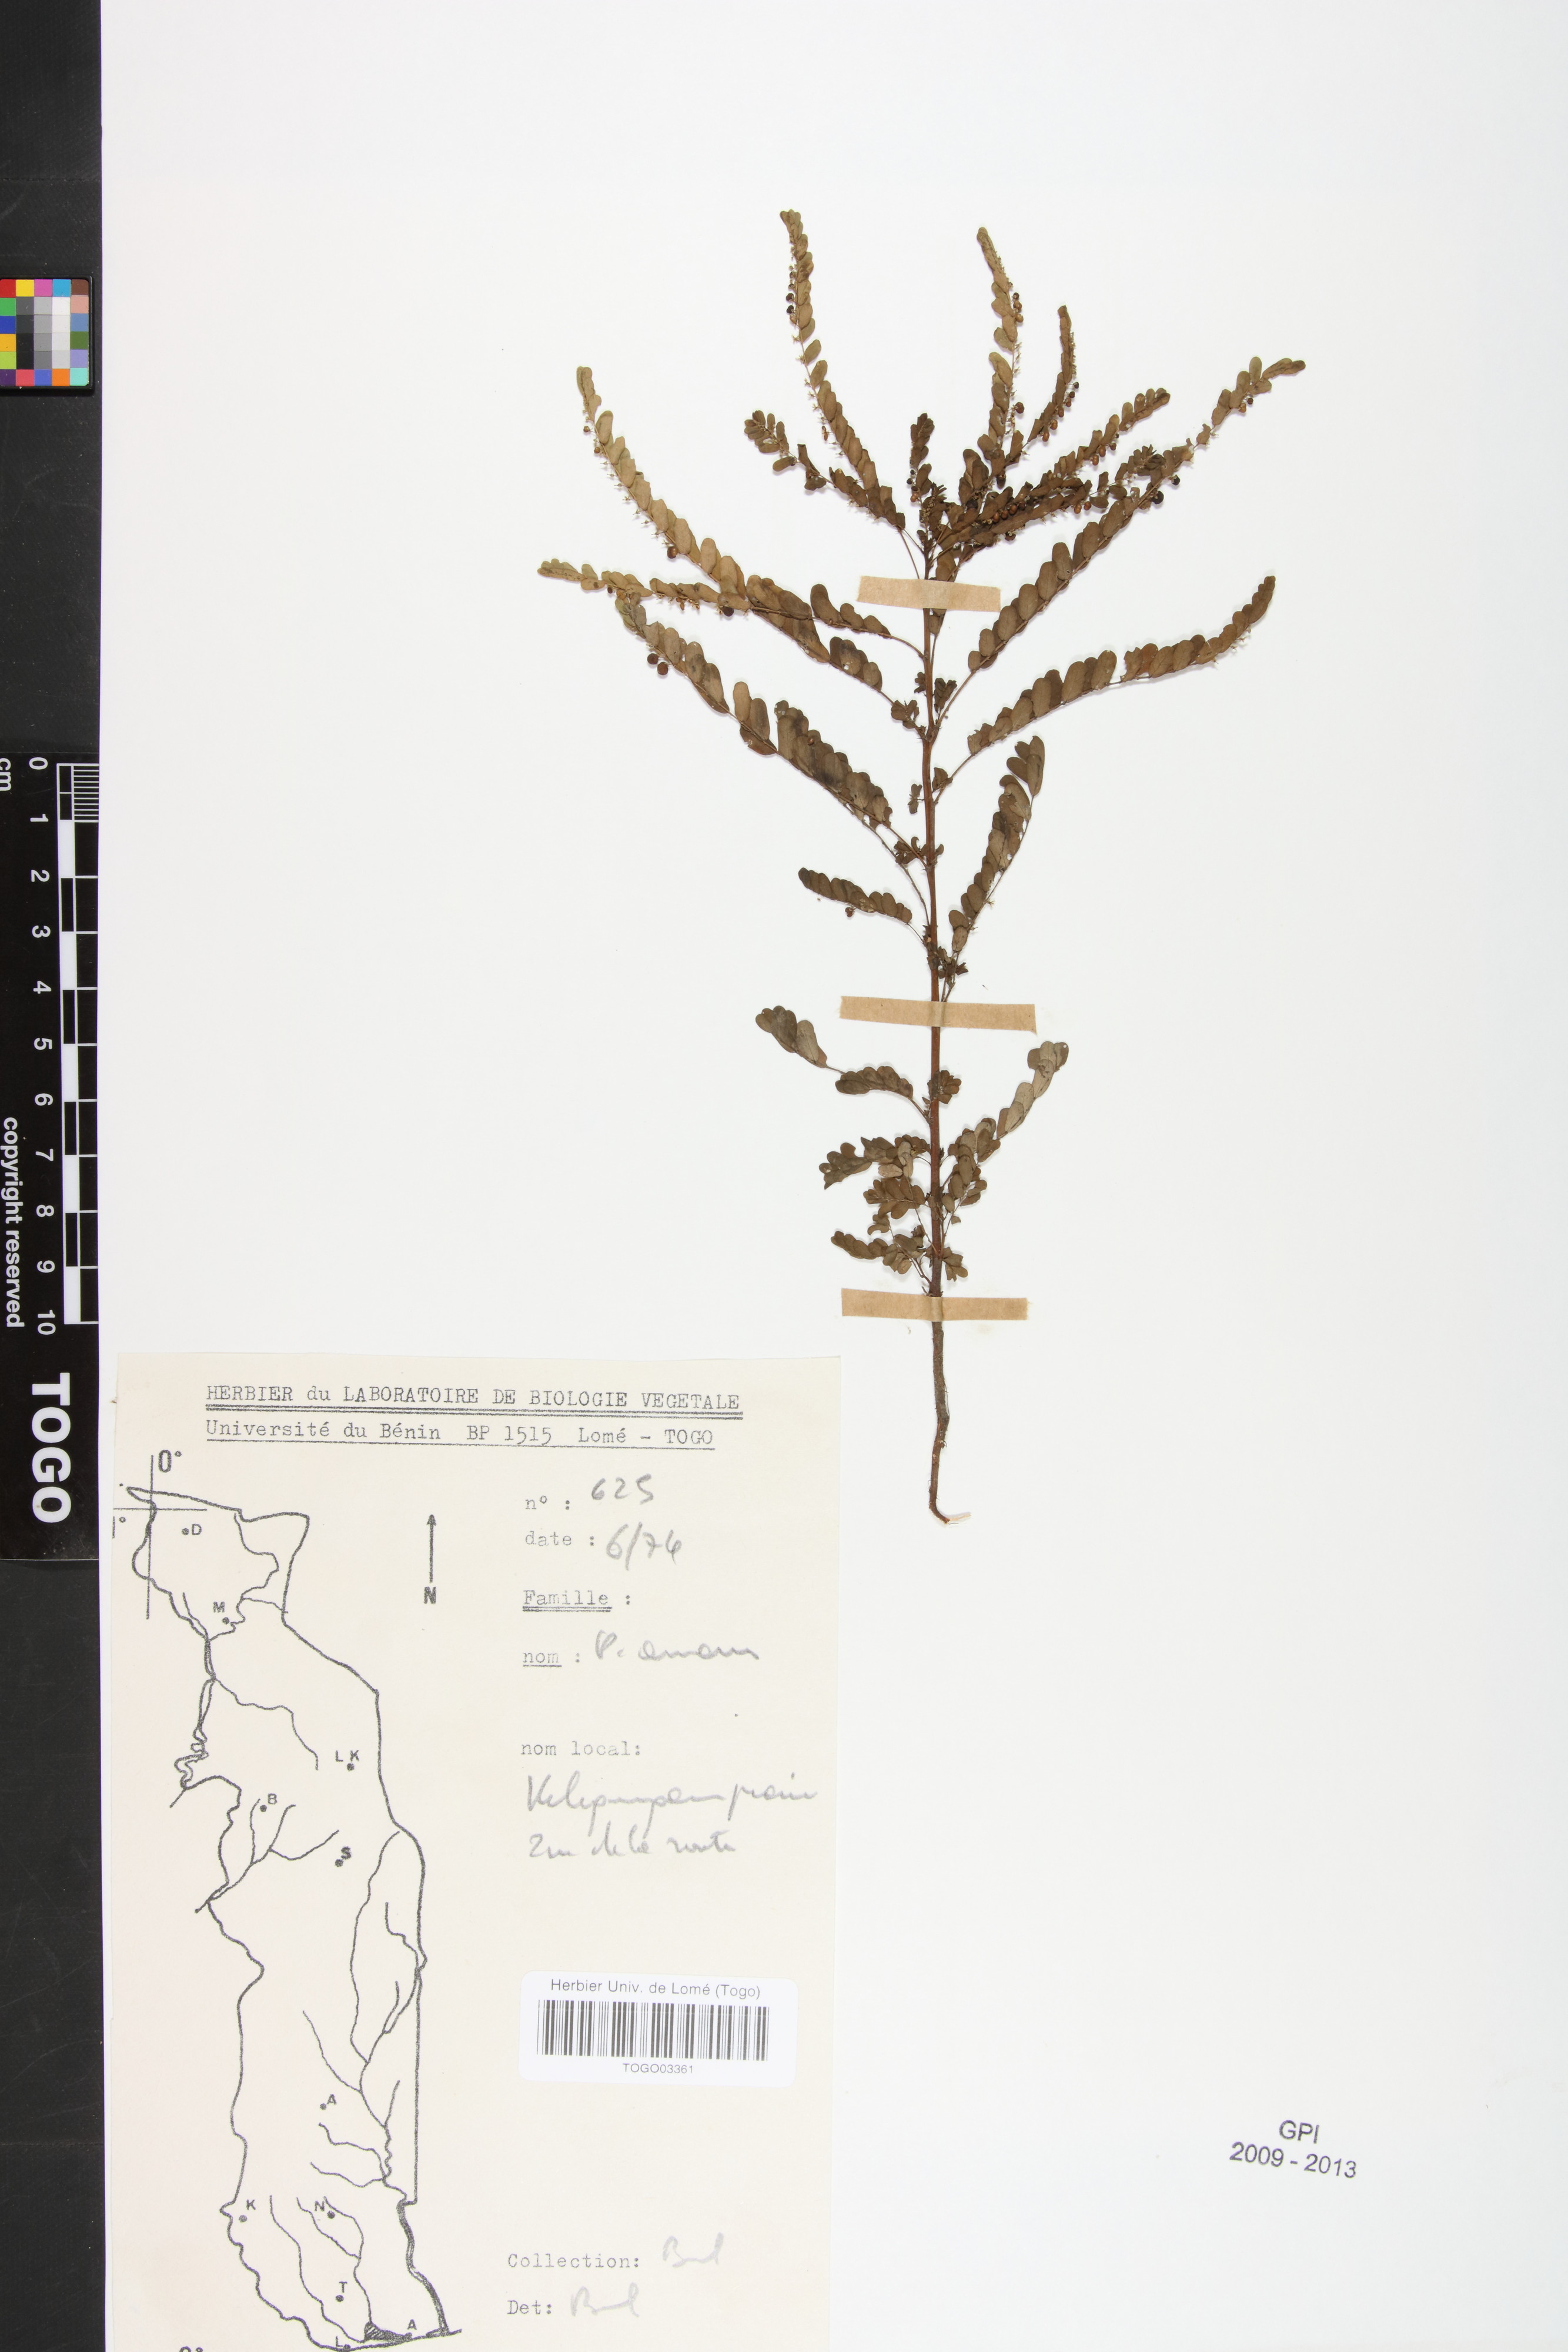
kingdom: Plantae
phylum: Tracheophyta
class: Magnoliopsida
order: Malpighiales
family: Phyllanthaceae
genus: Phyllanthus
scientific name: Phyllanthus amarus
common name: Carry me seed
